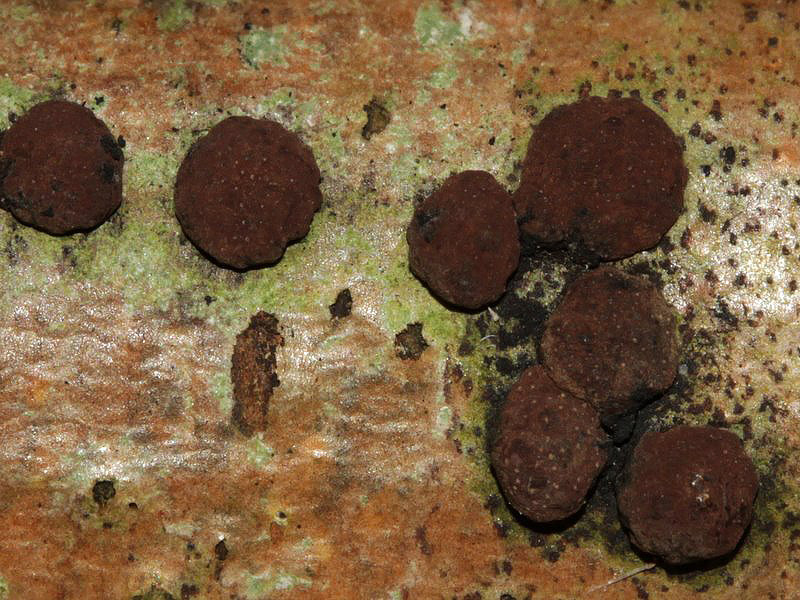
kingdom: Fungi
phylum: Ascomycota
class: Sordariomycetes
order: Xylariales
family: Hypoxylaceae
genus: Hypoxylon
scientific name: Hypoxylon fuscum
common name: kegleformet kulbær
